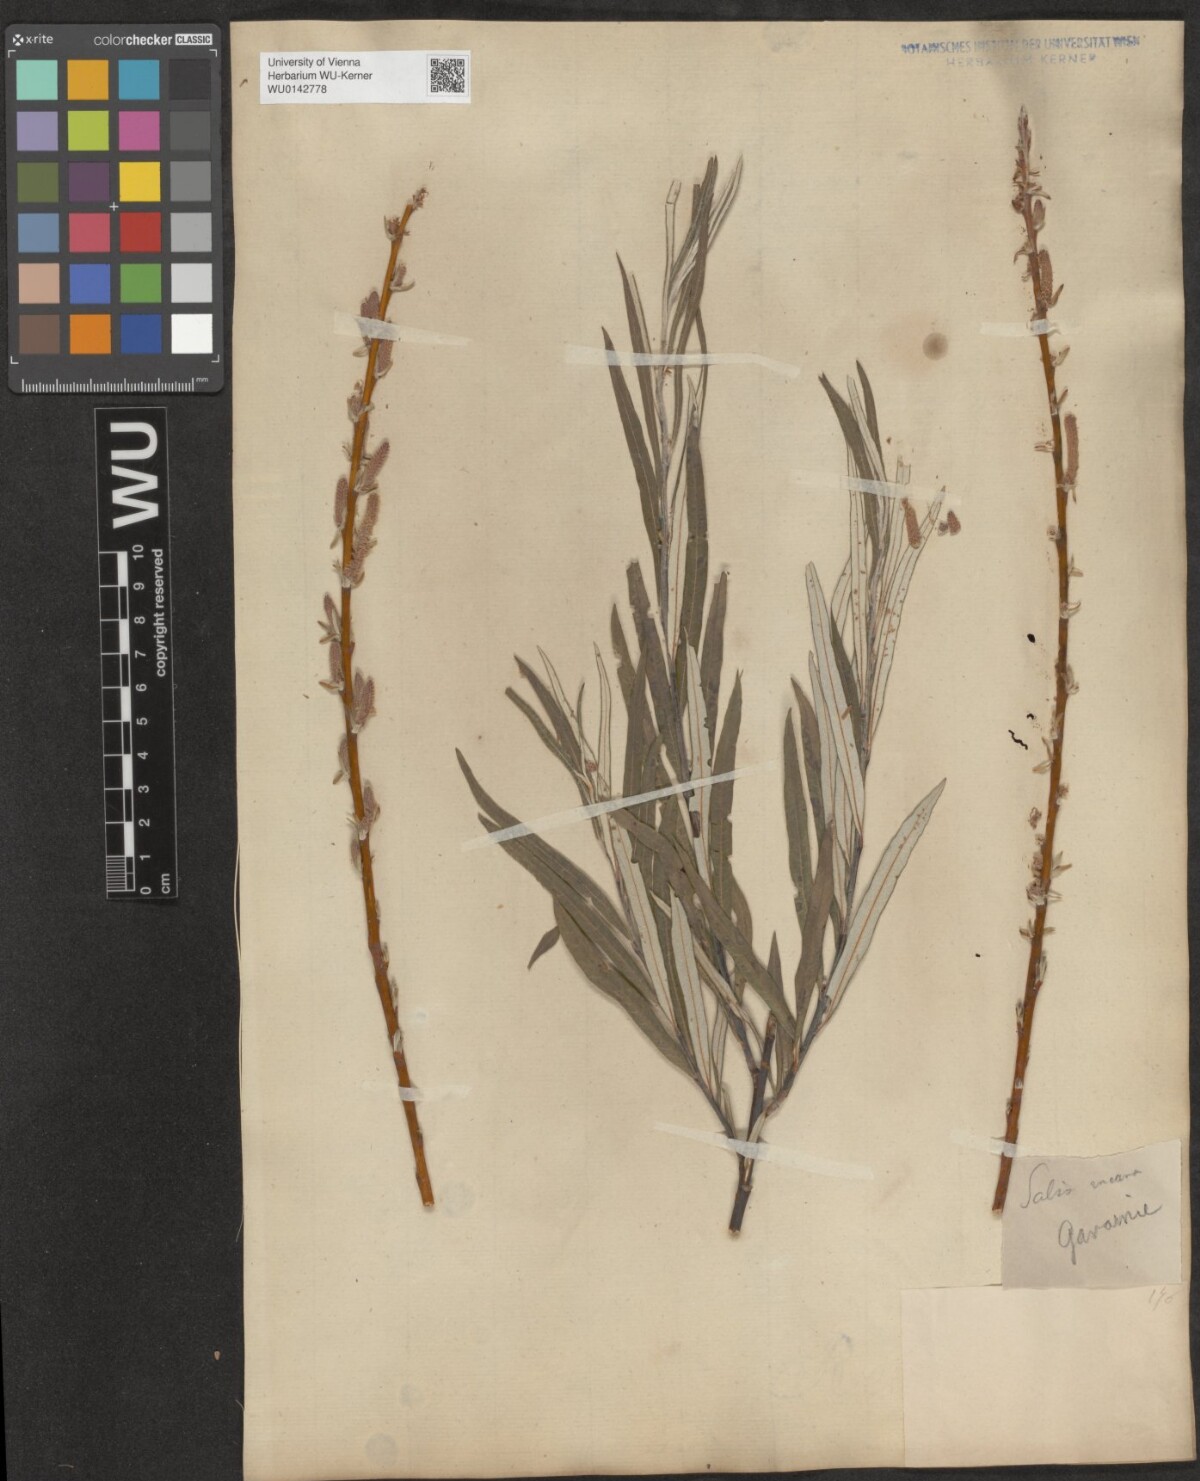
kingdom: Plantae
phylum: Tracheophyta
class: Magnoliopsida
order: Malpighiales
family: Salicaceae
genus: Salix
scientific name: Salix eleagnos
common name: Elaeagnus willow
